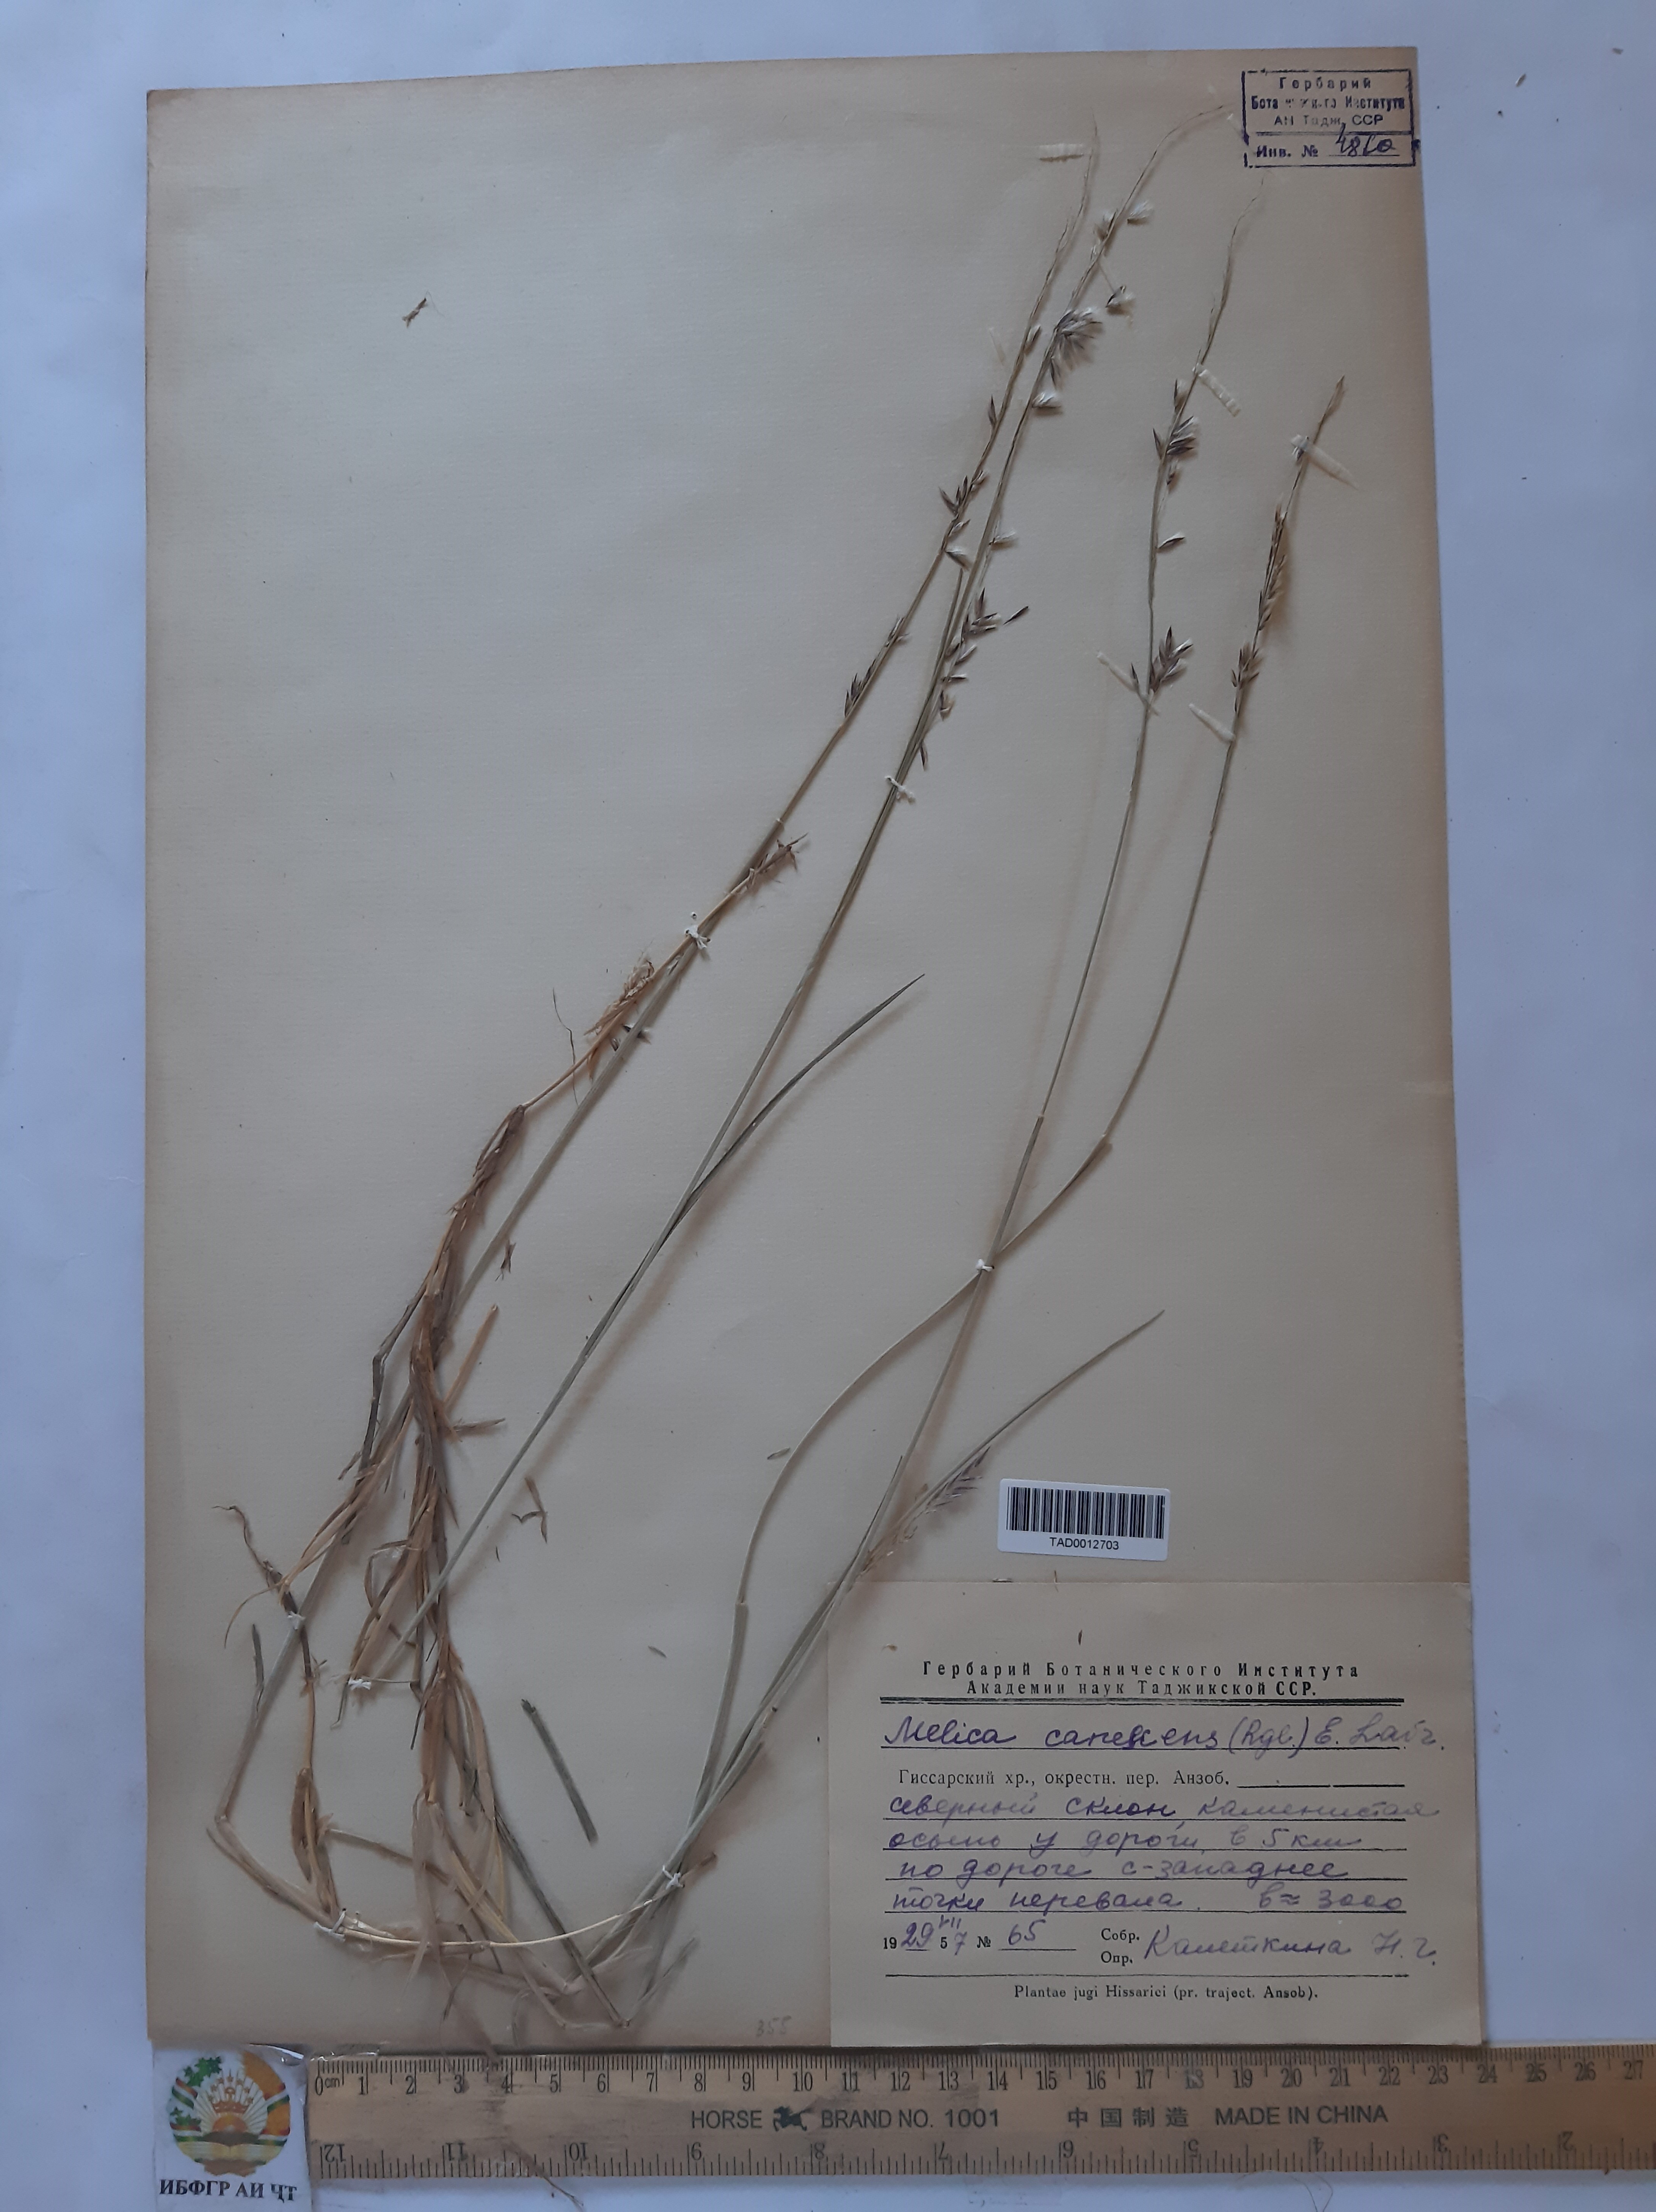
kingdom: Plantae
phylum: Tracheophyta
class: Liliopsida
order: Poales
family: Poaceae
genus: Melica
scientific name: Melica persica
